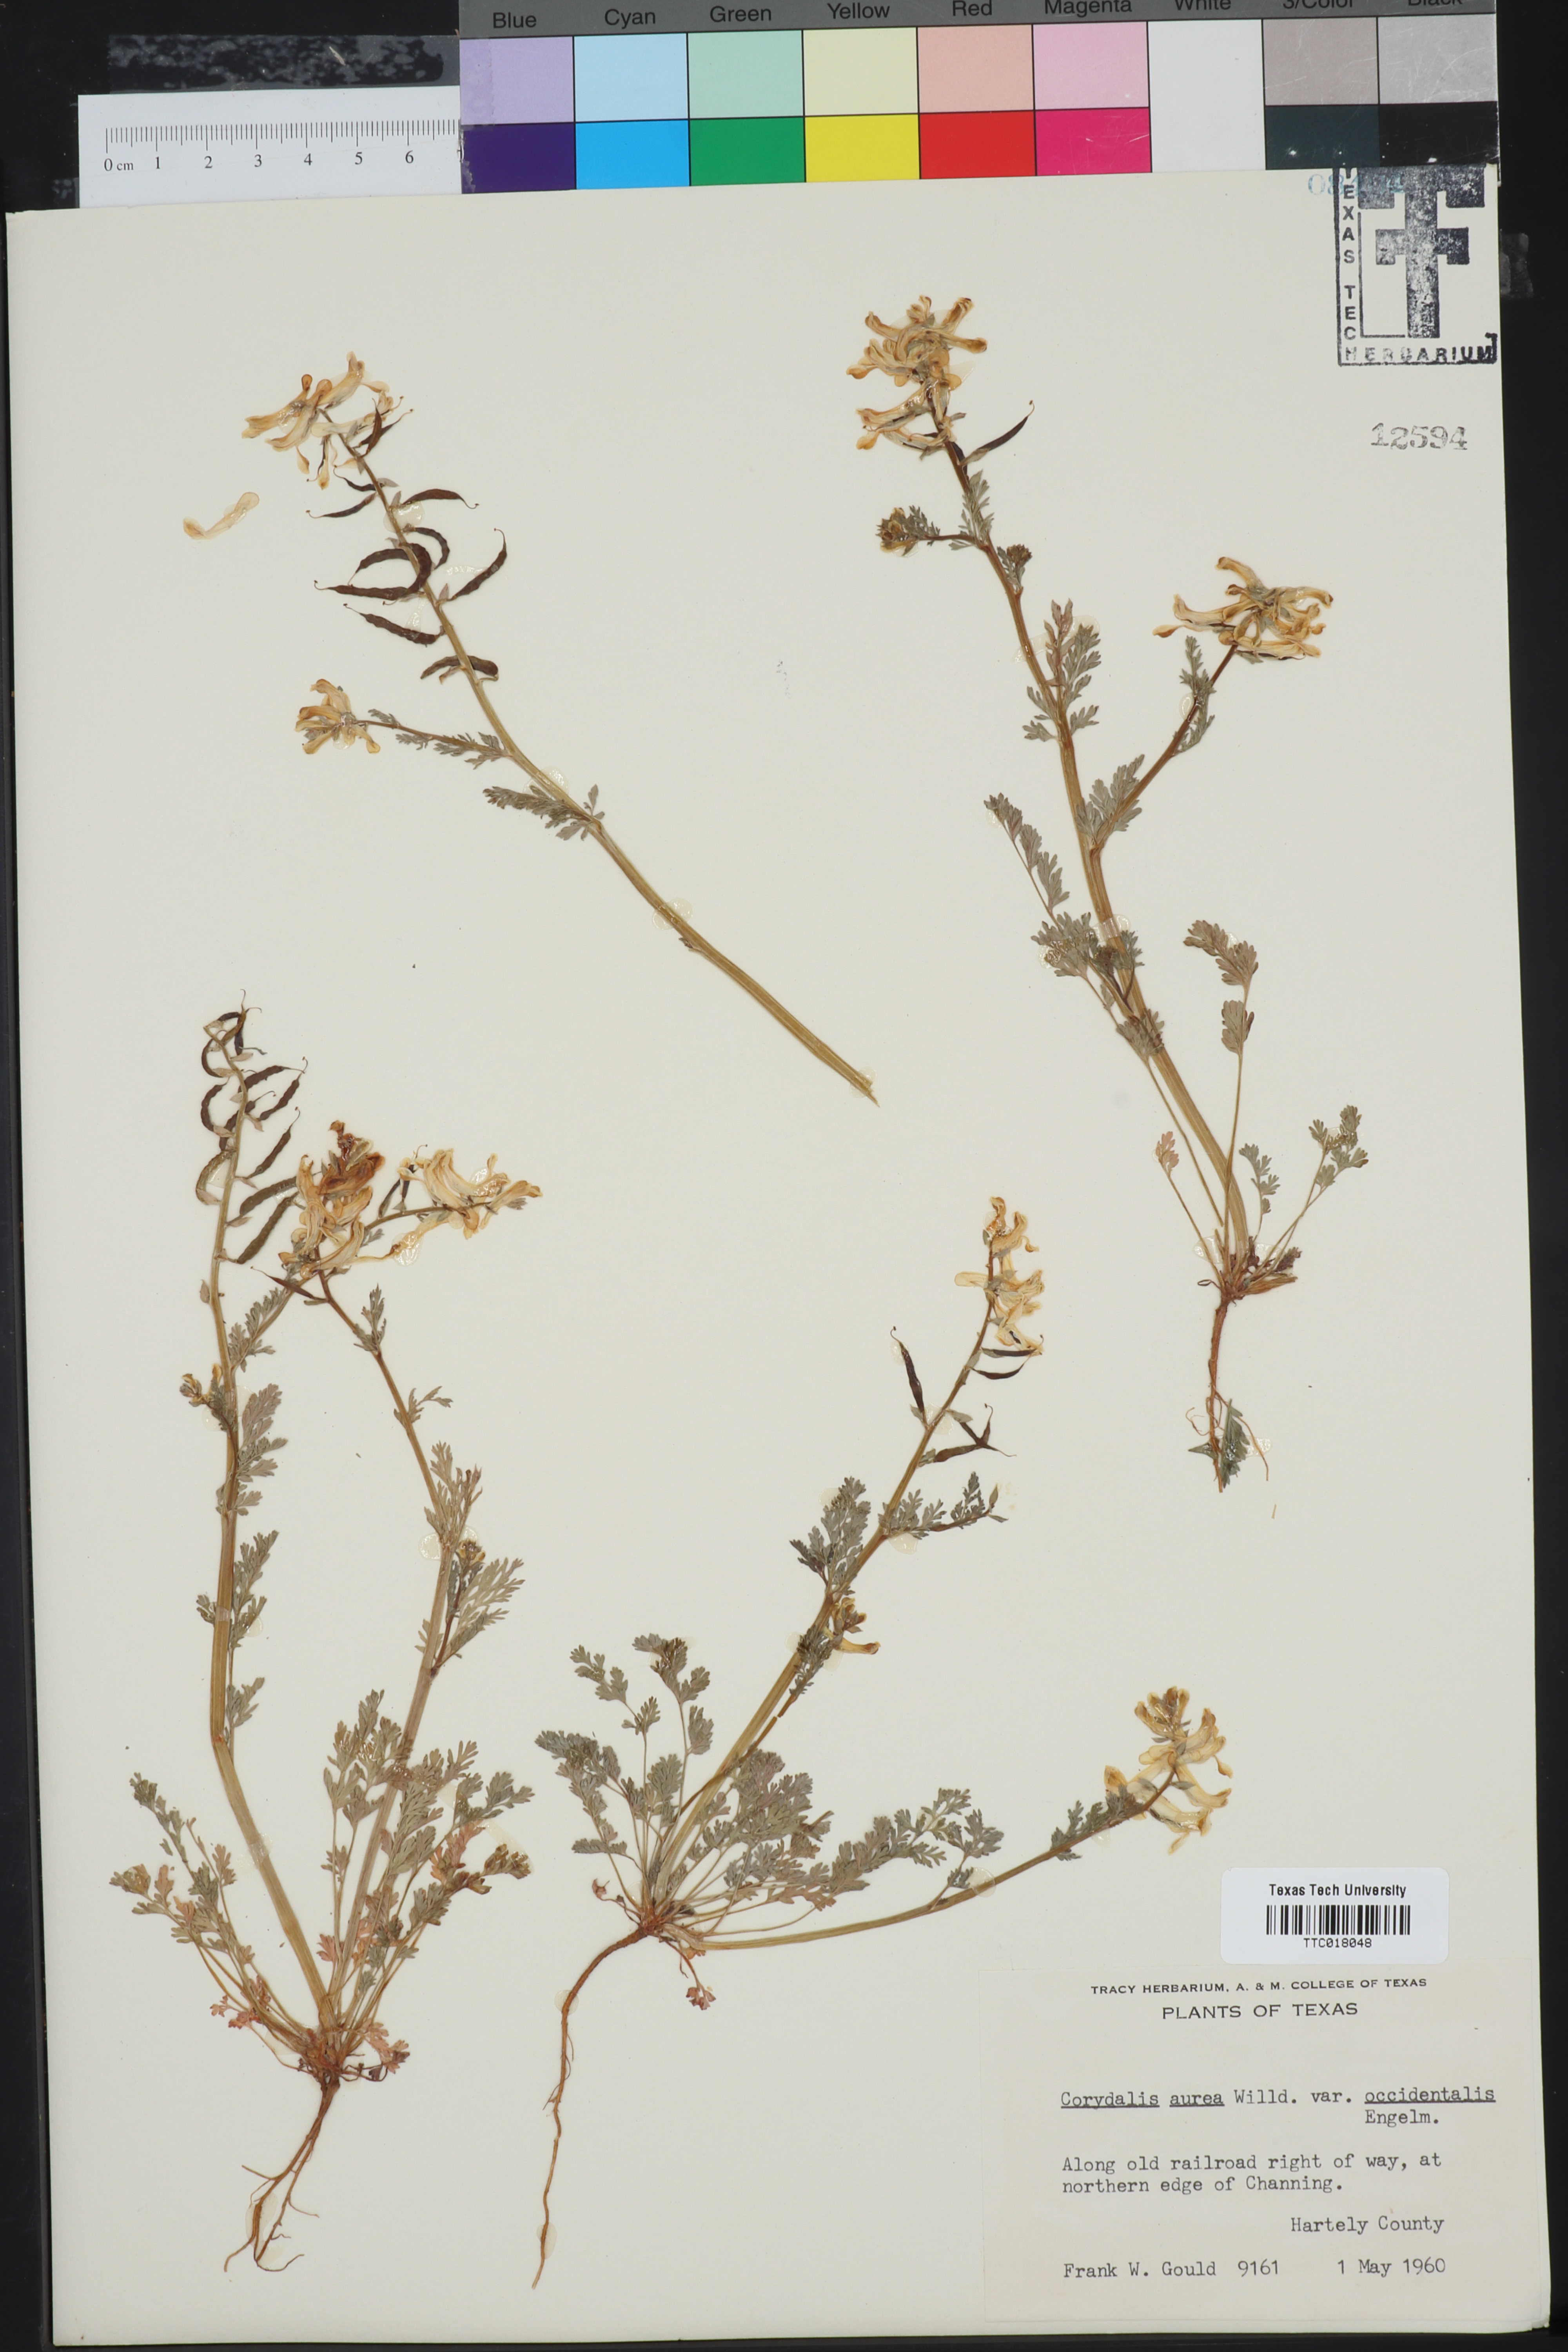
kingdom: Plantae
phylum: Tracheophyta
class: Magnoliopsida
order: Ranunculales
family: Papaveraceae
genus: Corydalis
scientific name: Corydalis curvisiliqua
